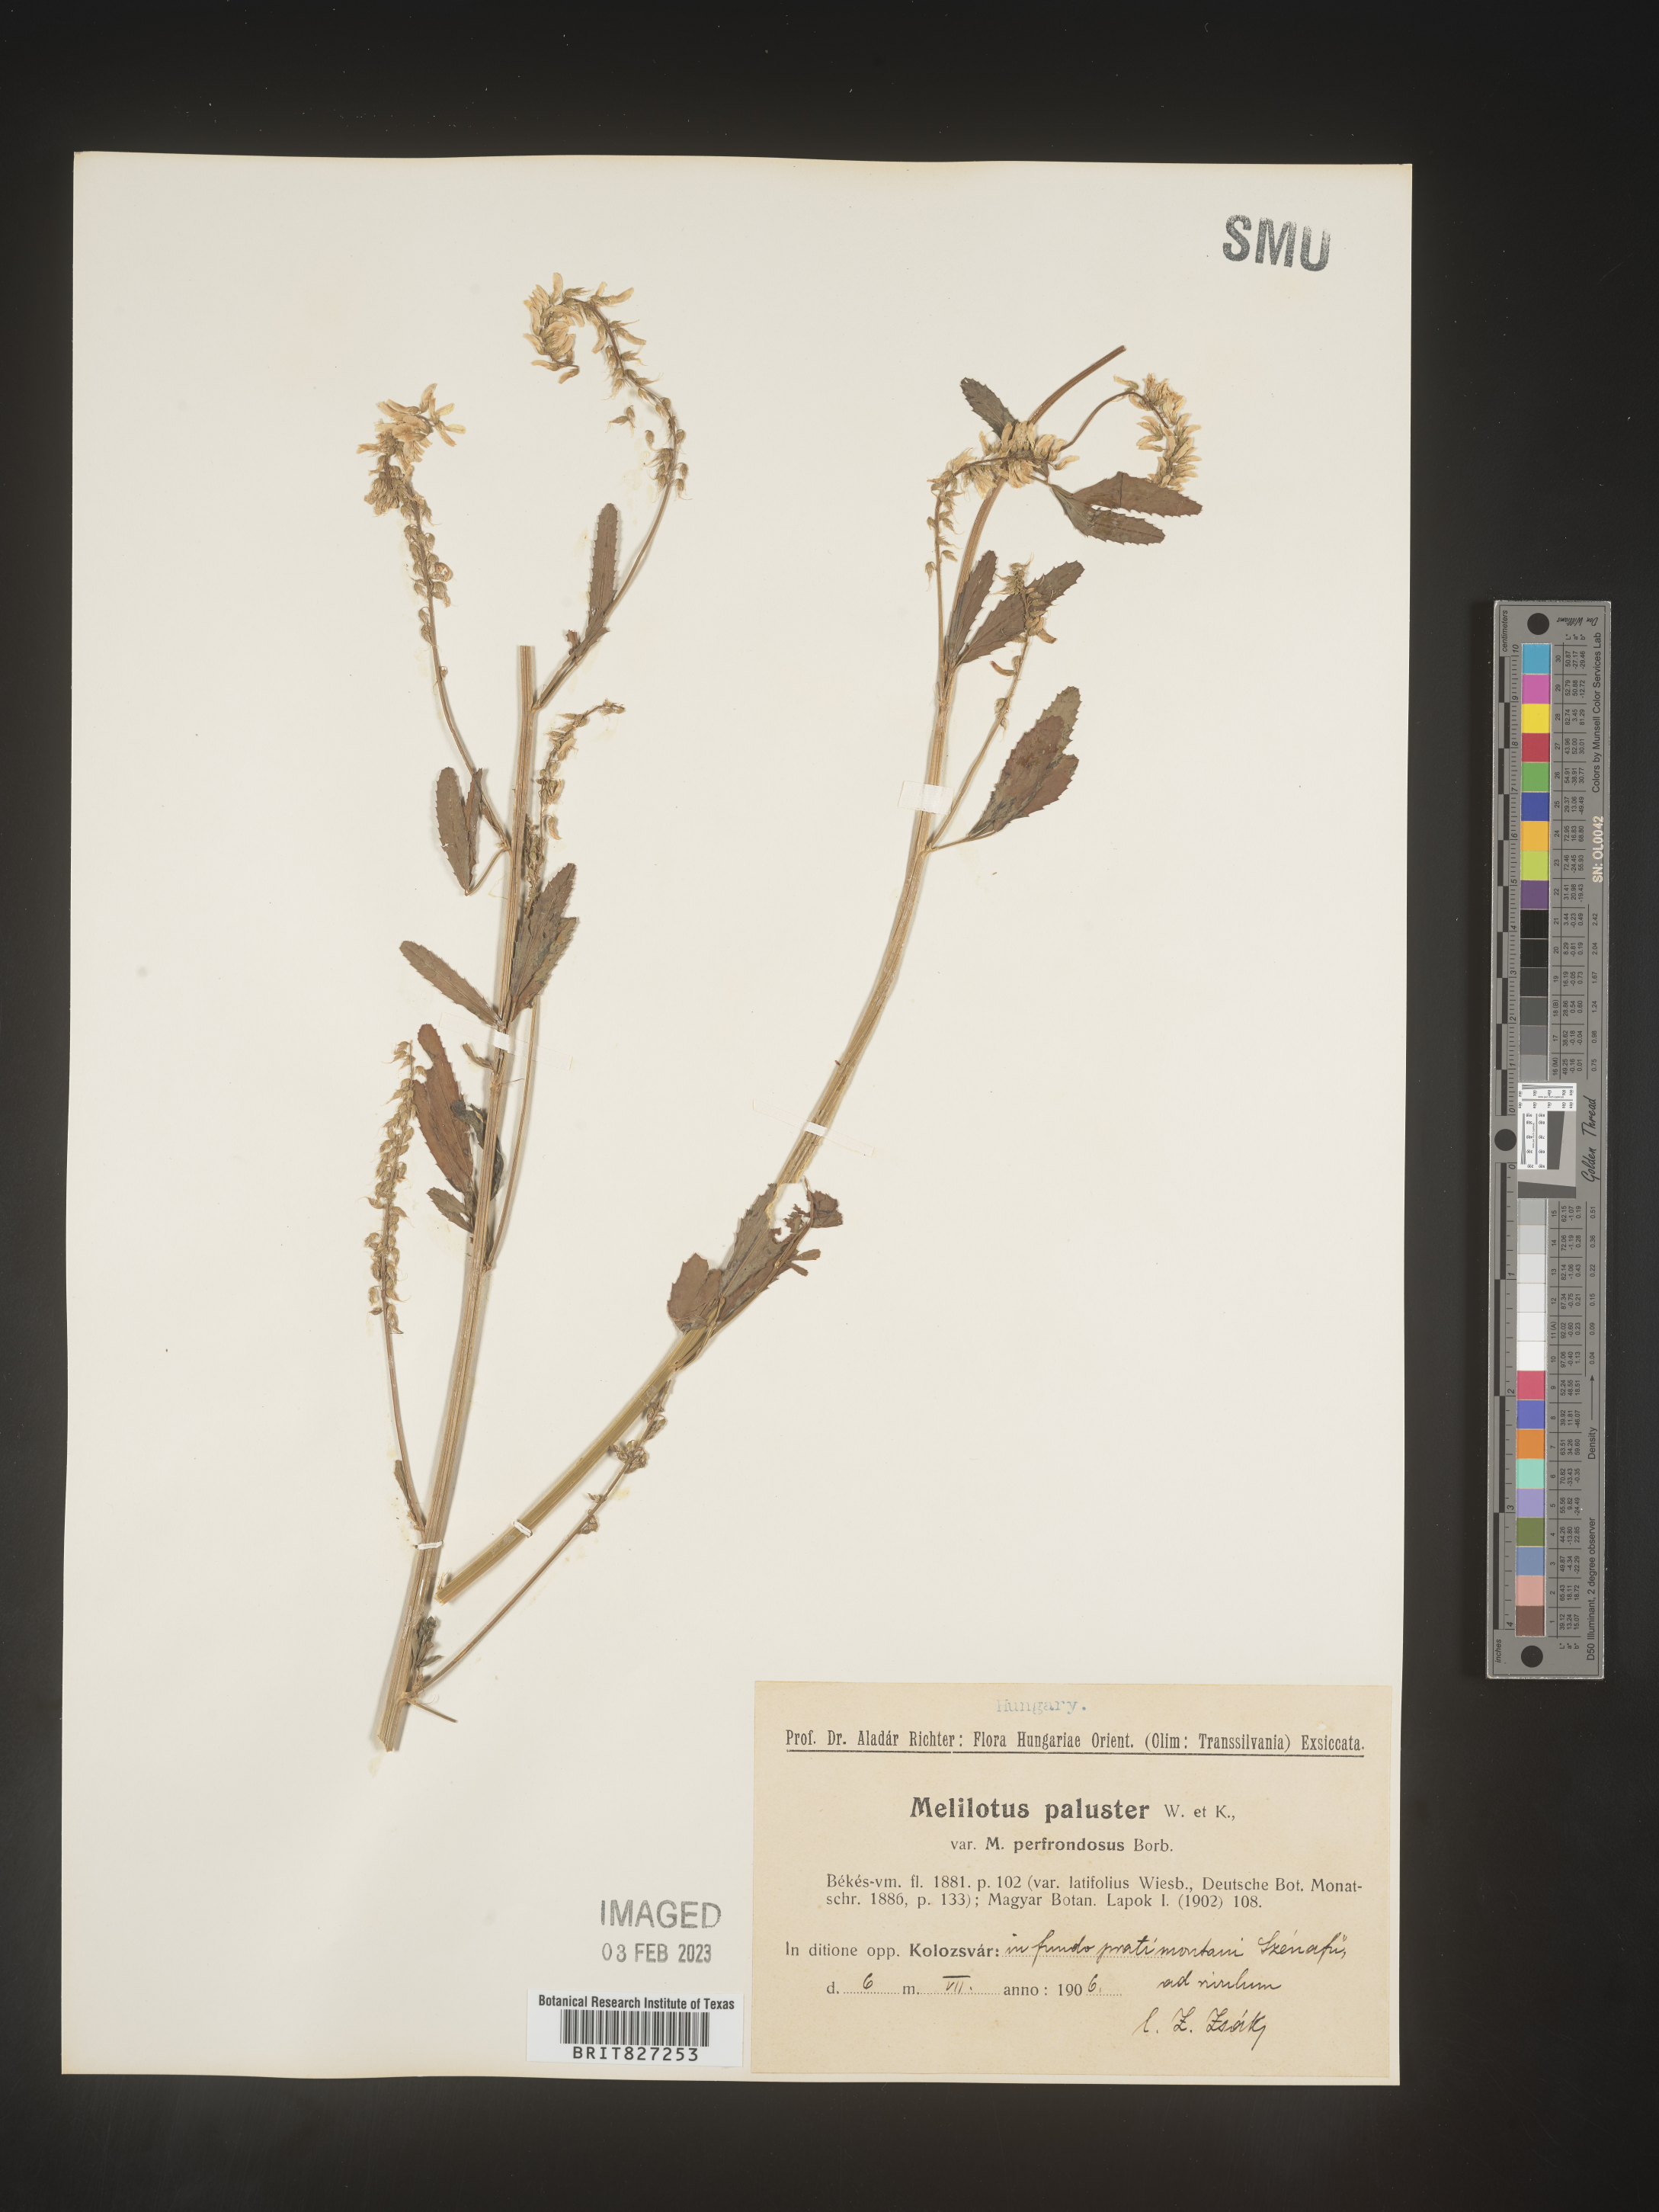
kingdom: Plantae
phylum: Tracheophyta
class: Magnoliopsida
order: Fabales
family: Fabaceae
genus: Melilotus
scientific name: Melilotus
